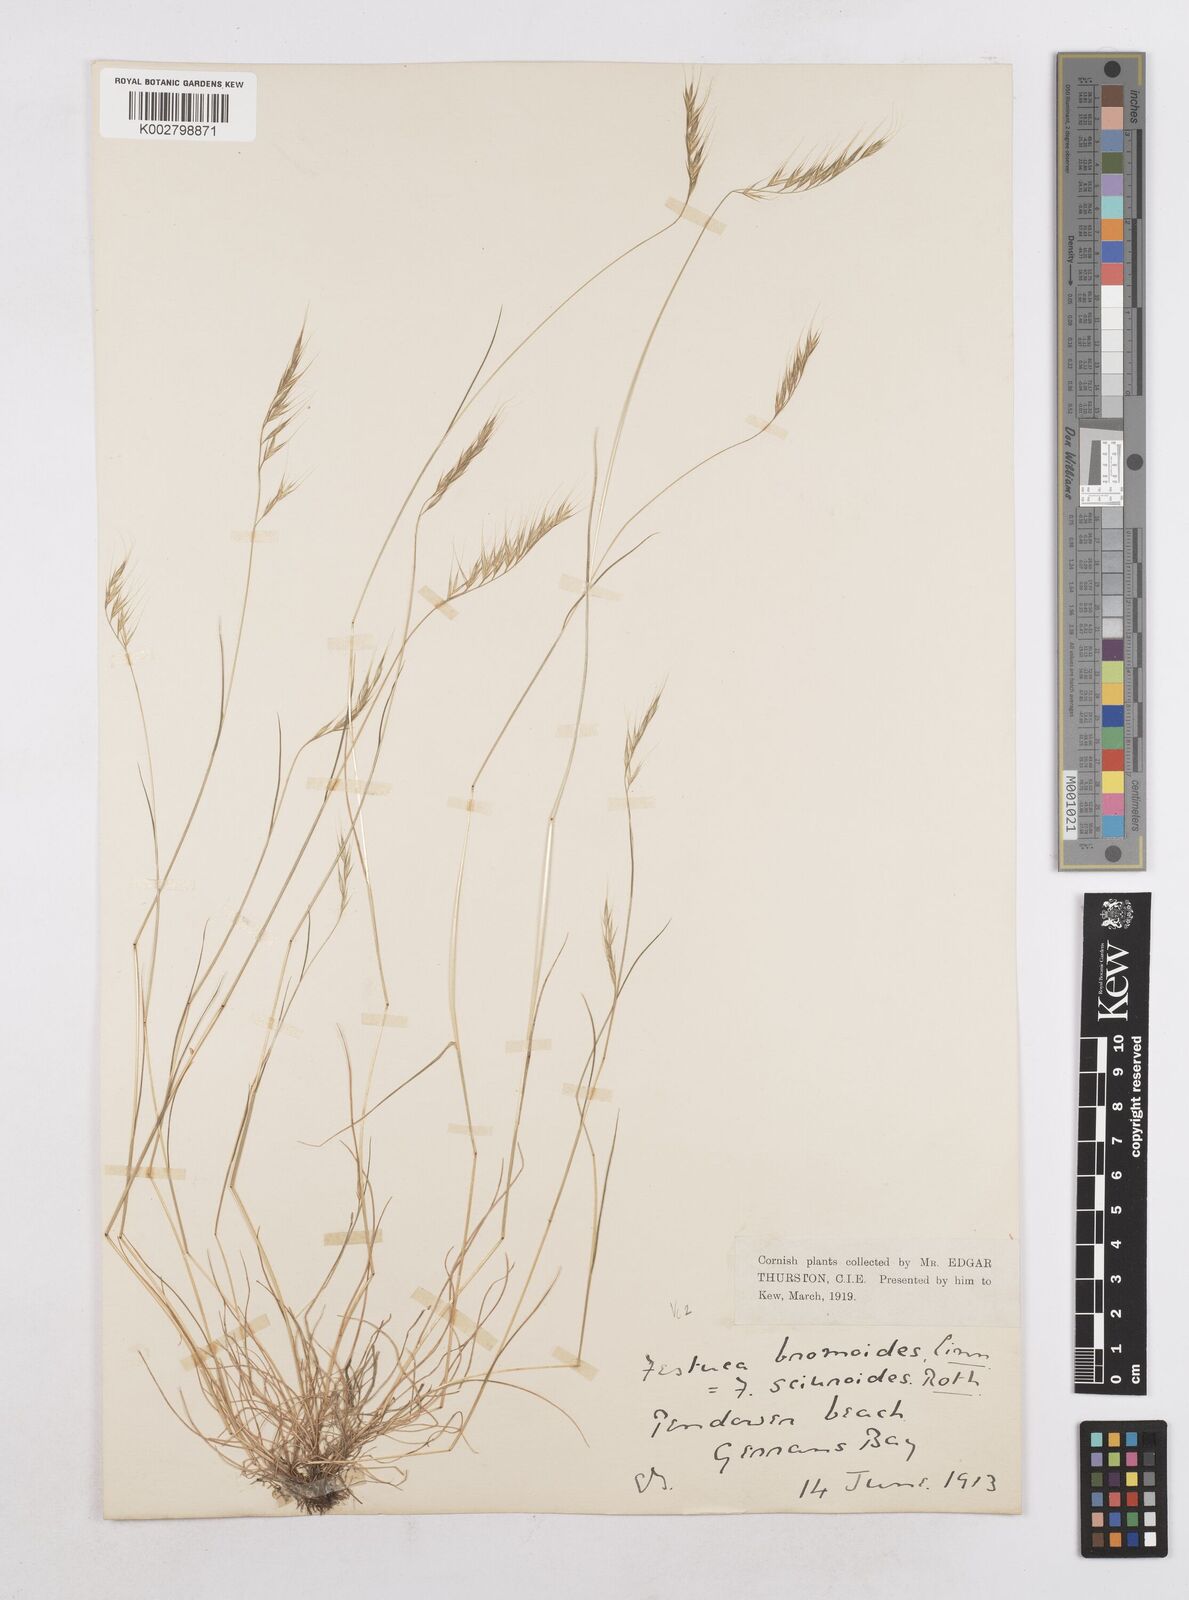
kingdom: Plantae
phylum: Tracheophyta
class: Liliopsida
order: Poales
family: Poaceae
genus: Festuca
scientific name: Festuca bromoides
